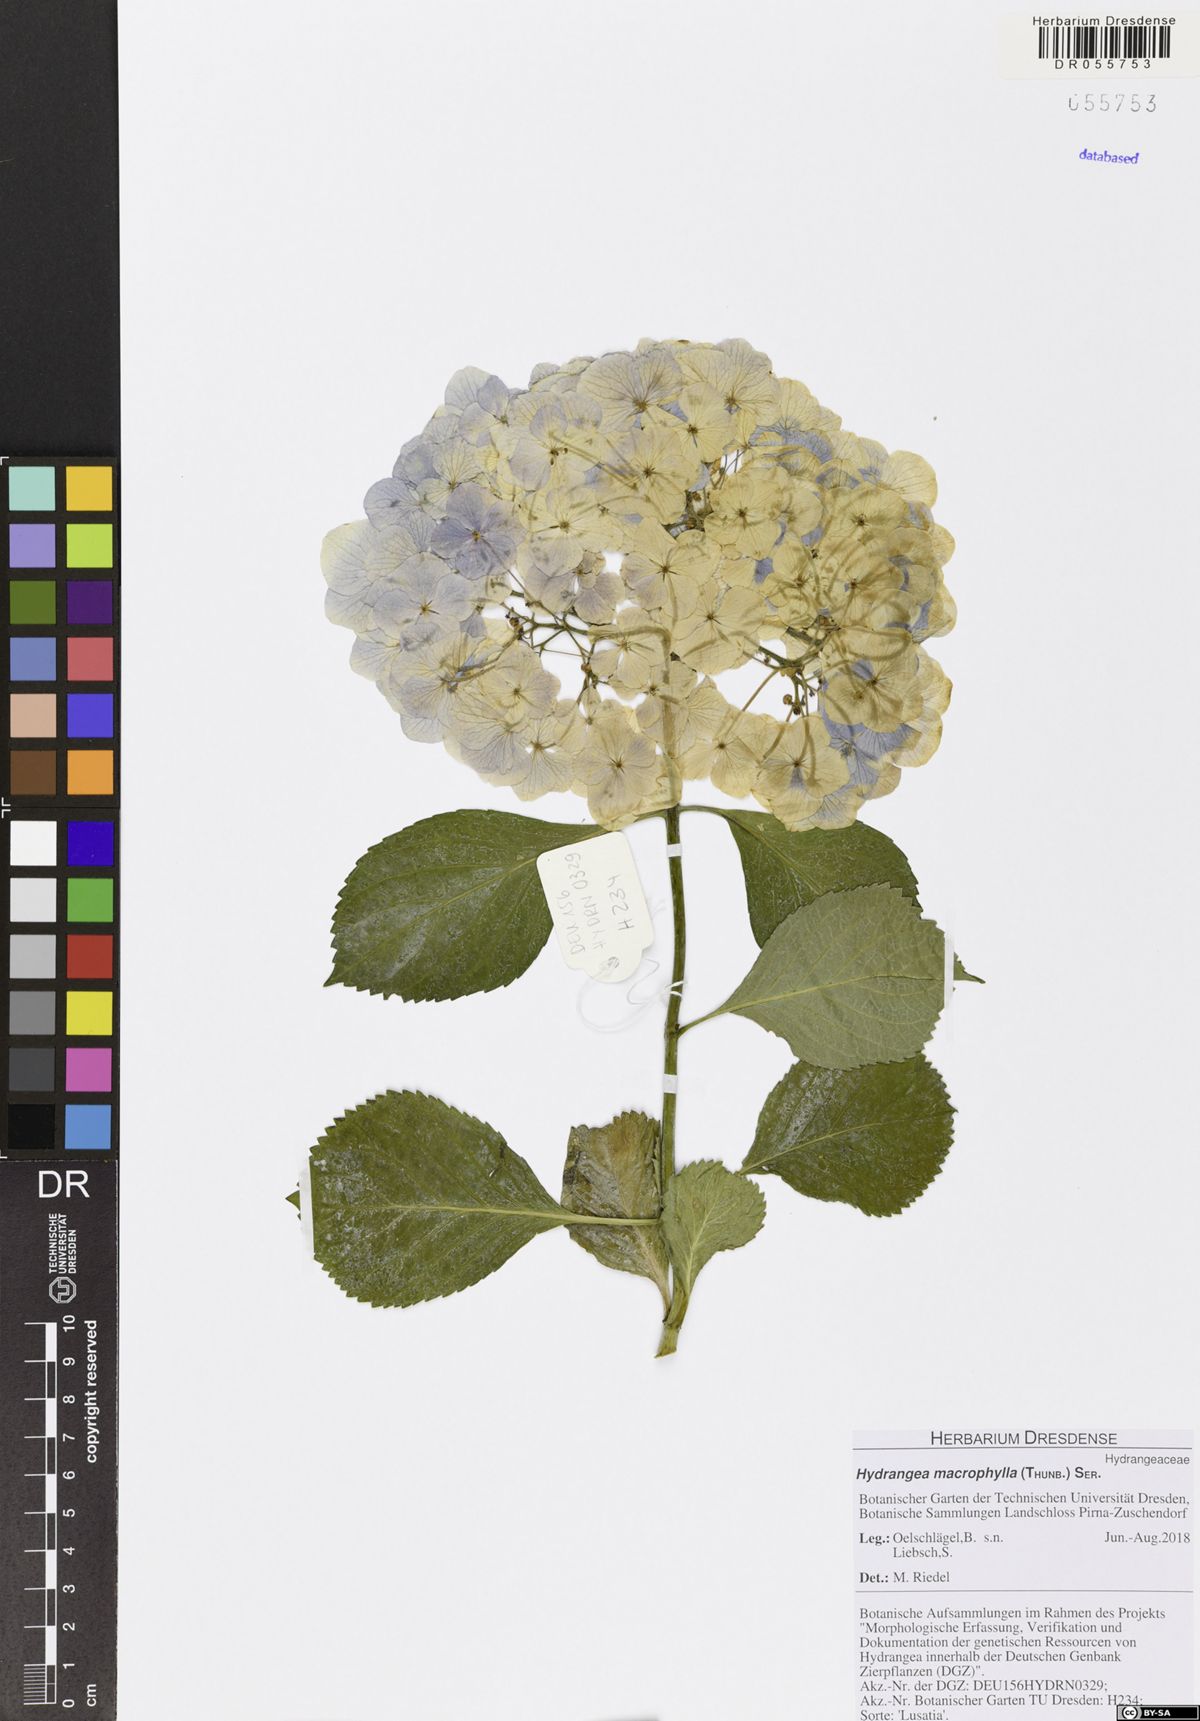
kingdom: Plantae
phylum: Tracheophyta
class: Magnoliopsida
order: Cornales
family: Hydrangeaceae
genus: Hydrangea
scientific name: Hydrangea macrophylla
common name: Hydrangea
